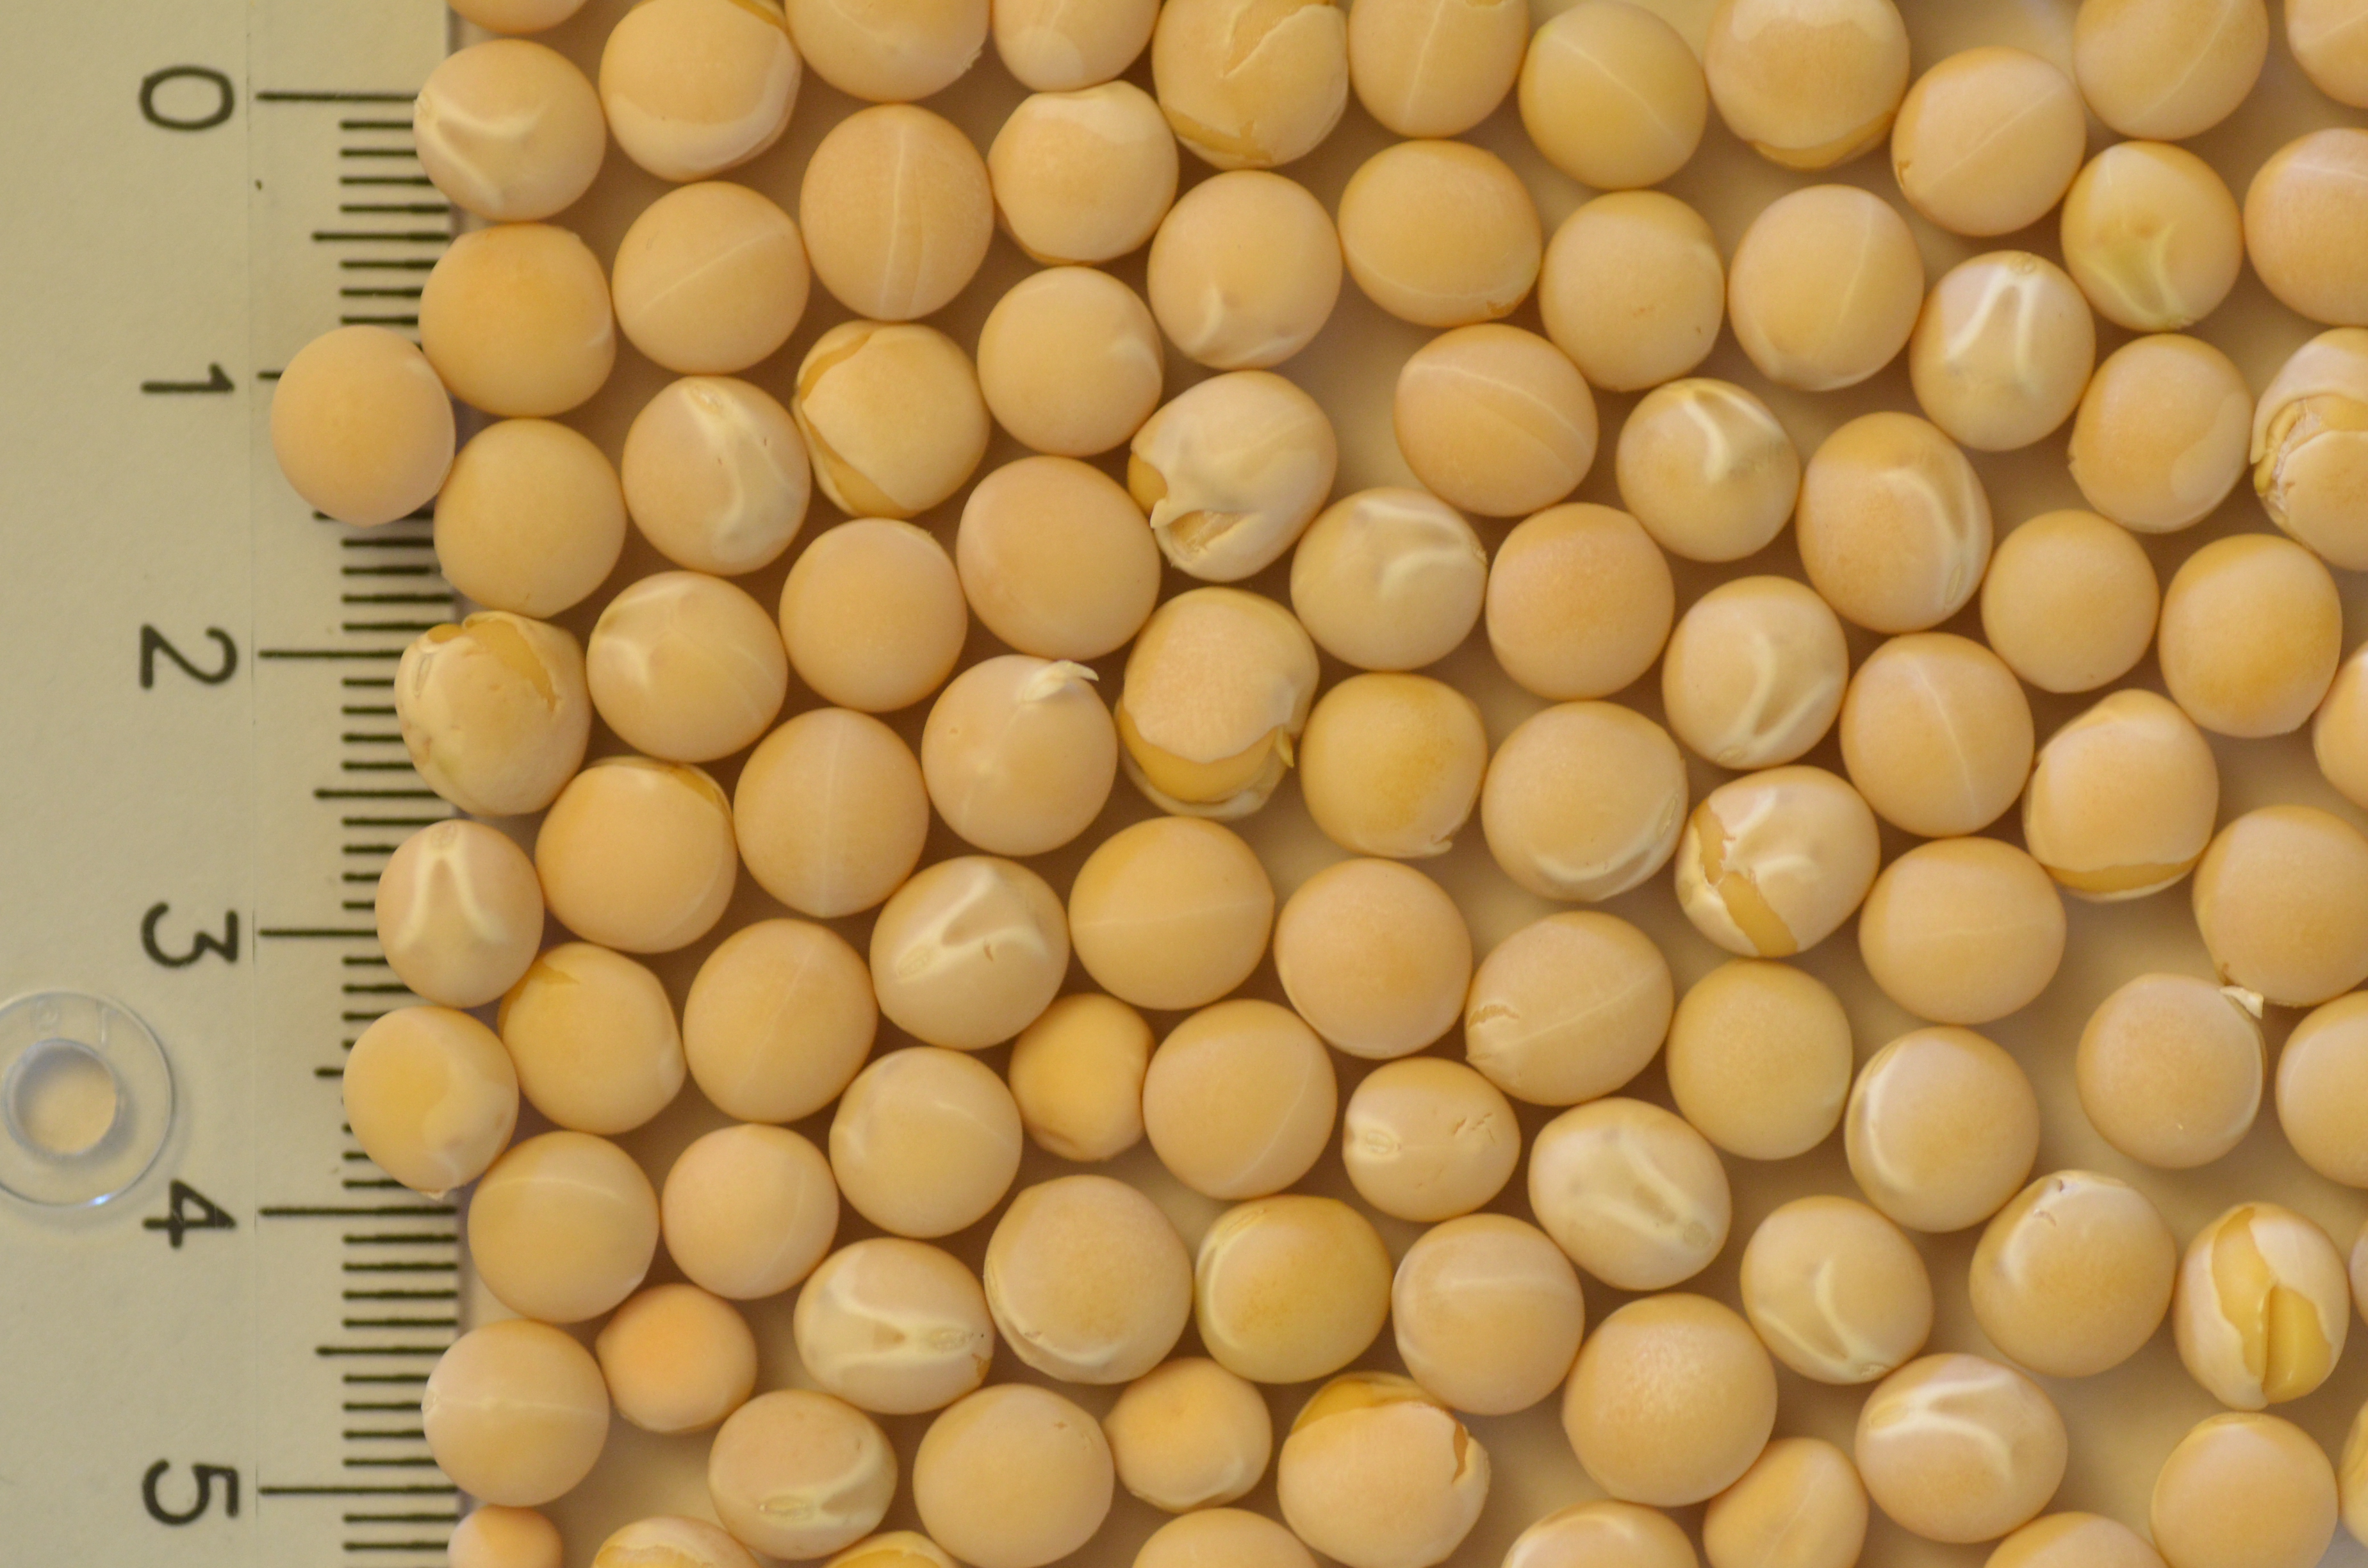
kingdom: Plantae
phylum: Tracheophyta
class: Magnoliopsida
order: Fabales
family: Fabaceae
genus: Lathyrus
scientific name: Lathyrus oleraceus
